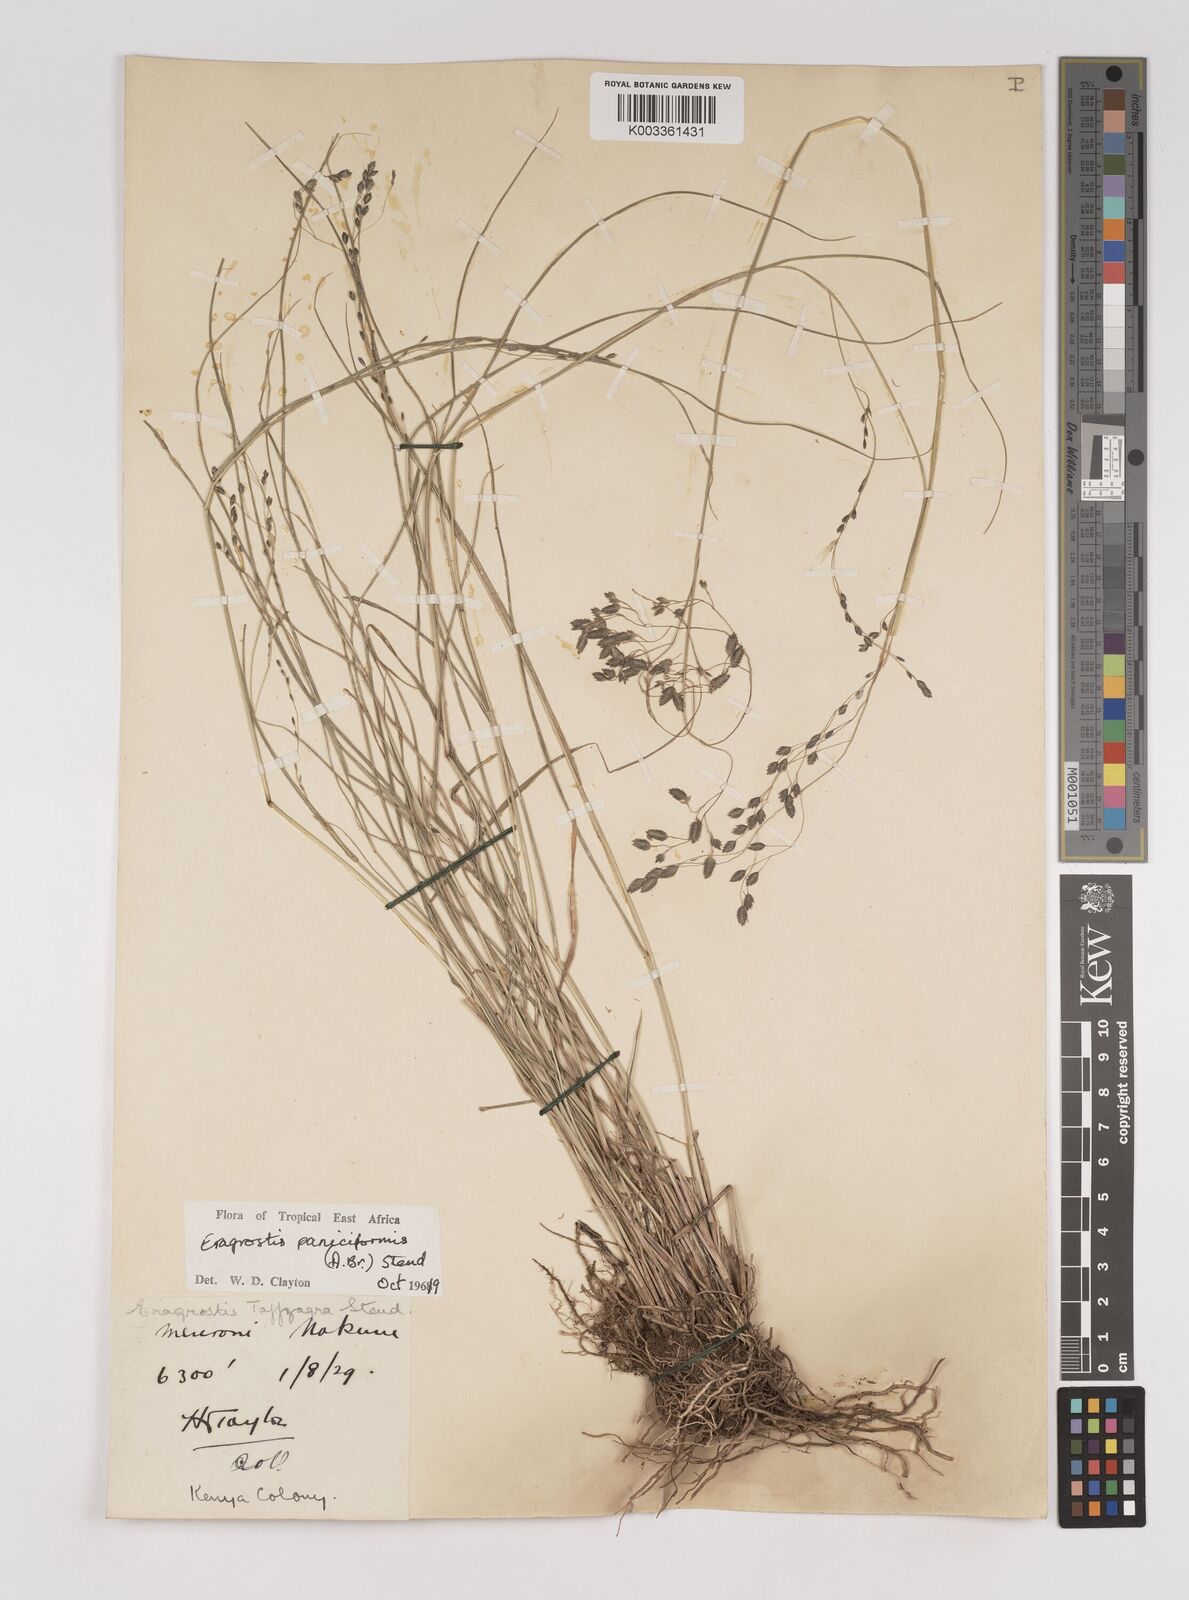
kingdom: Plantae
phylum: Tracheophyta
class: Liliopsida
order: Poales
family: Poaceae
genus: Eragrostis
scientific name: Eragrostis paniciformis
